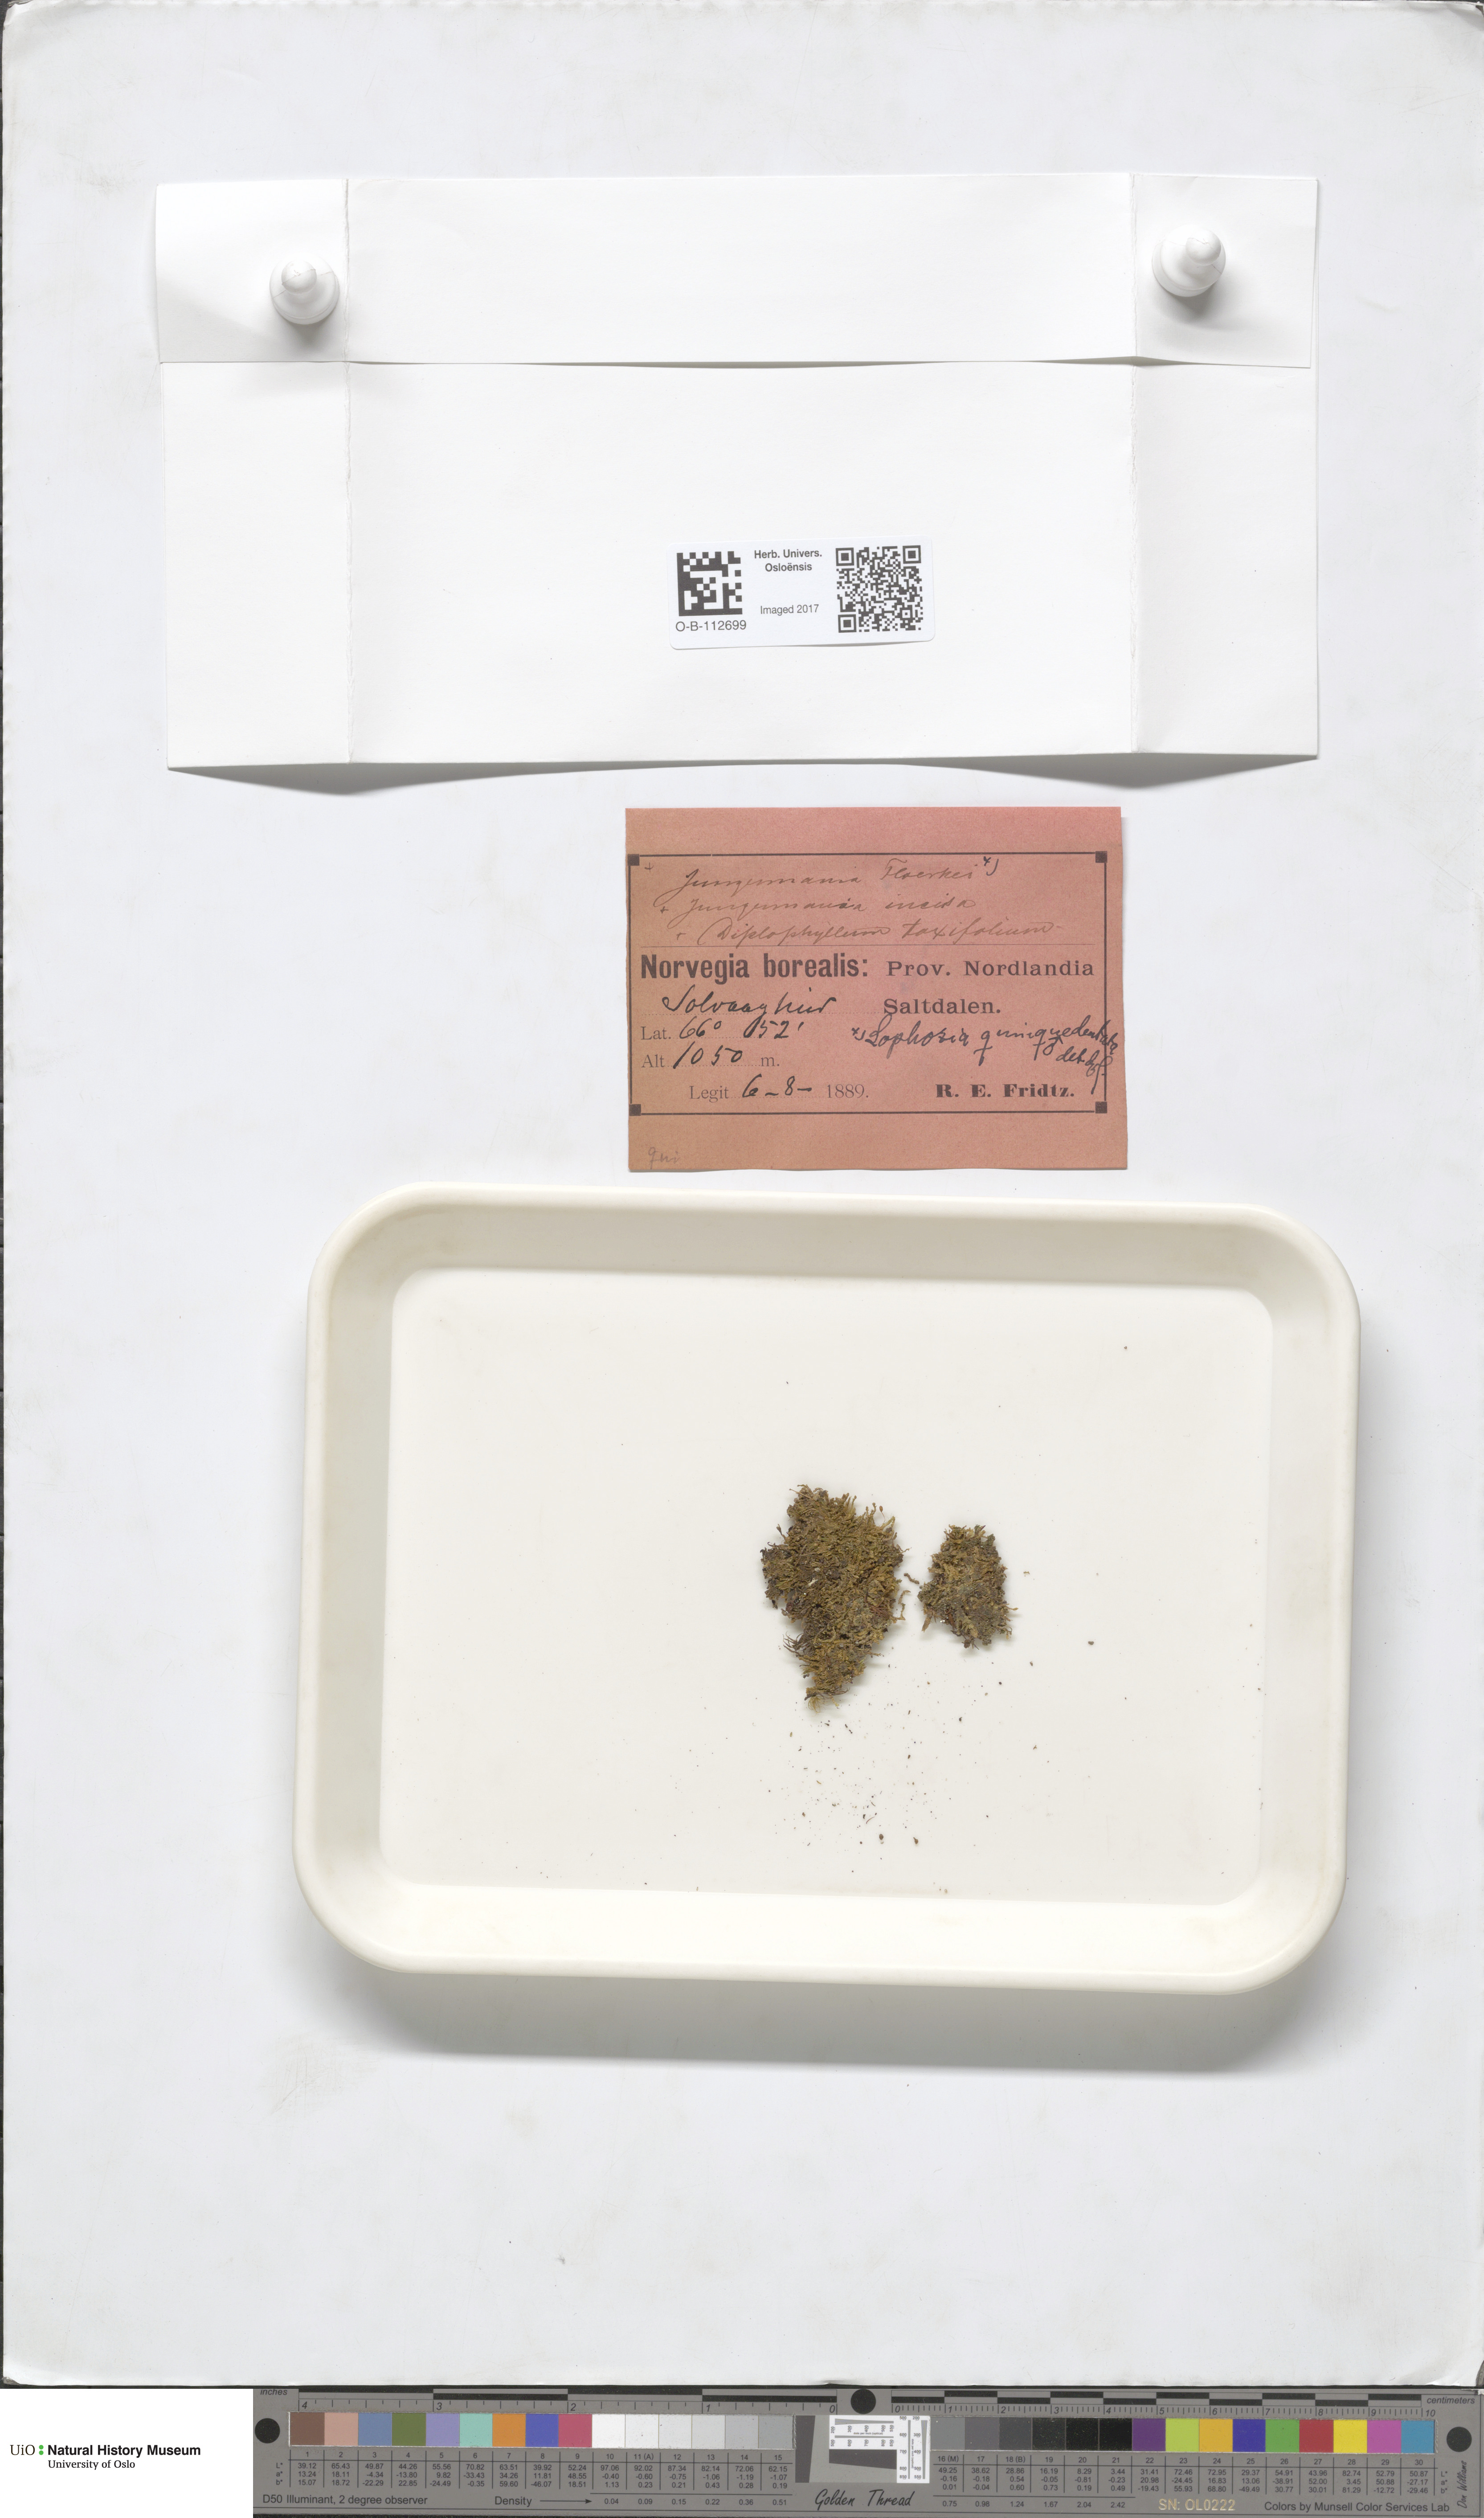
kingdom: Plantae
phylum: Marchantiophyta
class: Jungermanniopsida
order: Jungermanniales
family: Lophoziaceae
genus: Trilophozia
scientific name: Trilophozia quinquedentata
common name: Large notchwort
